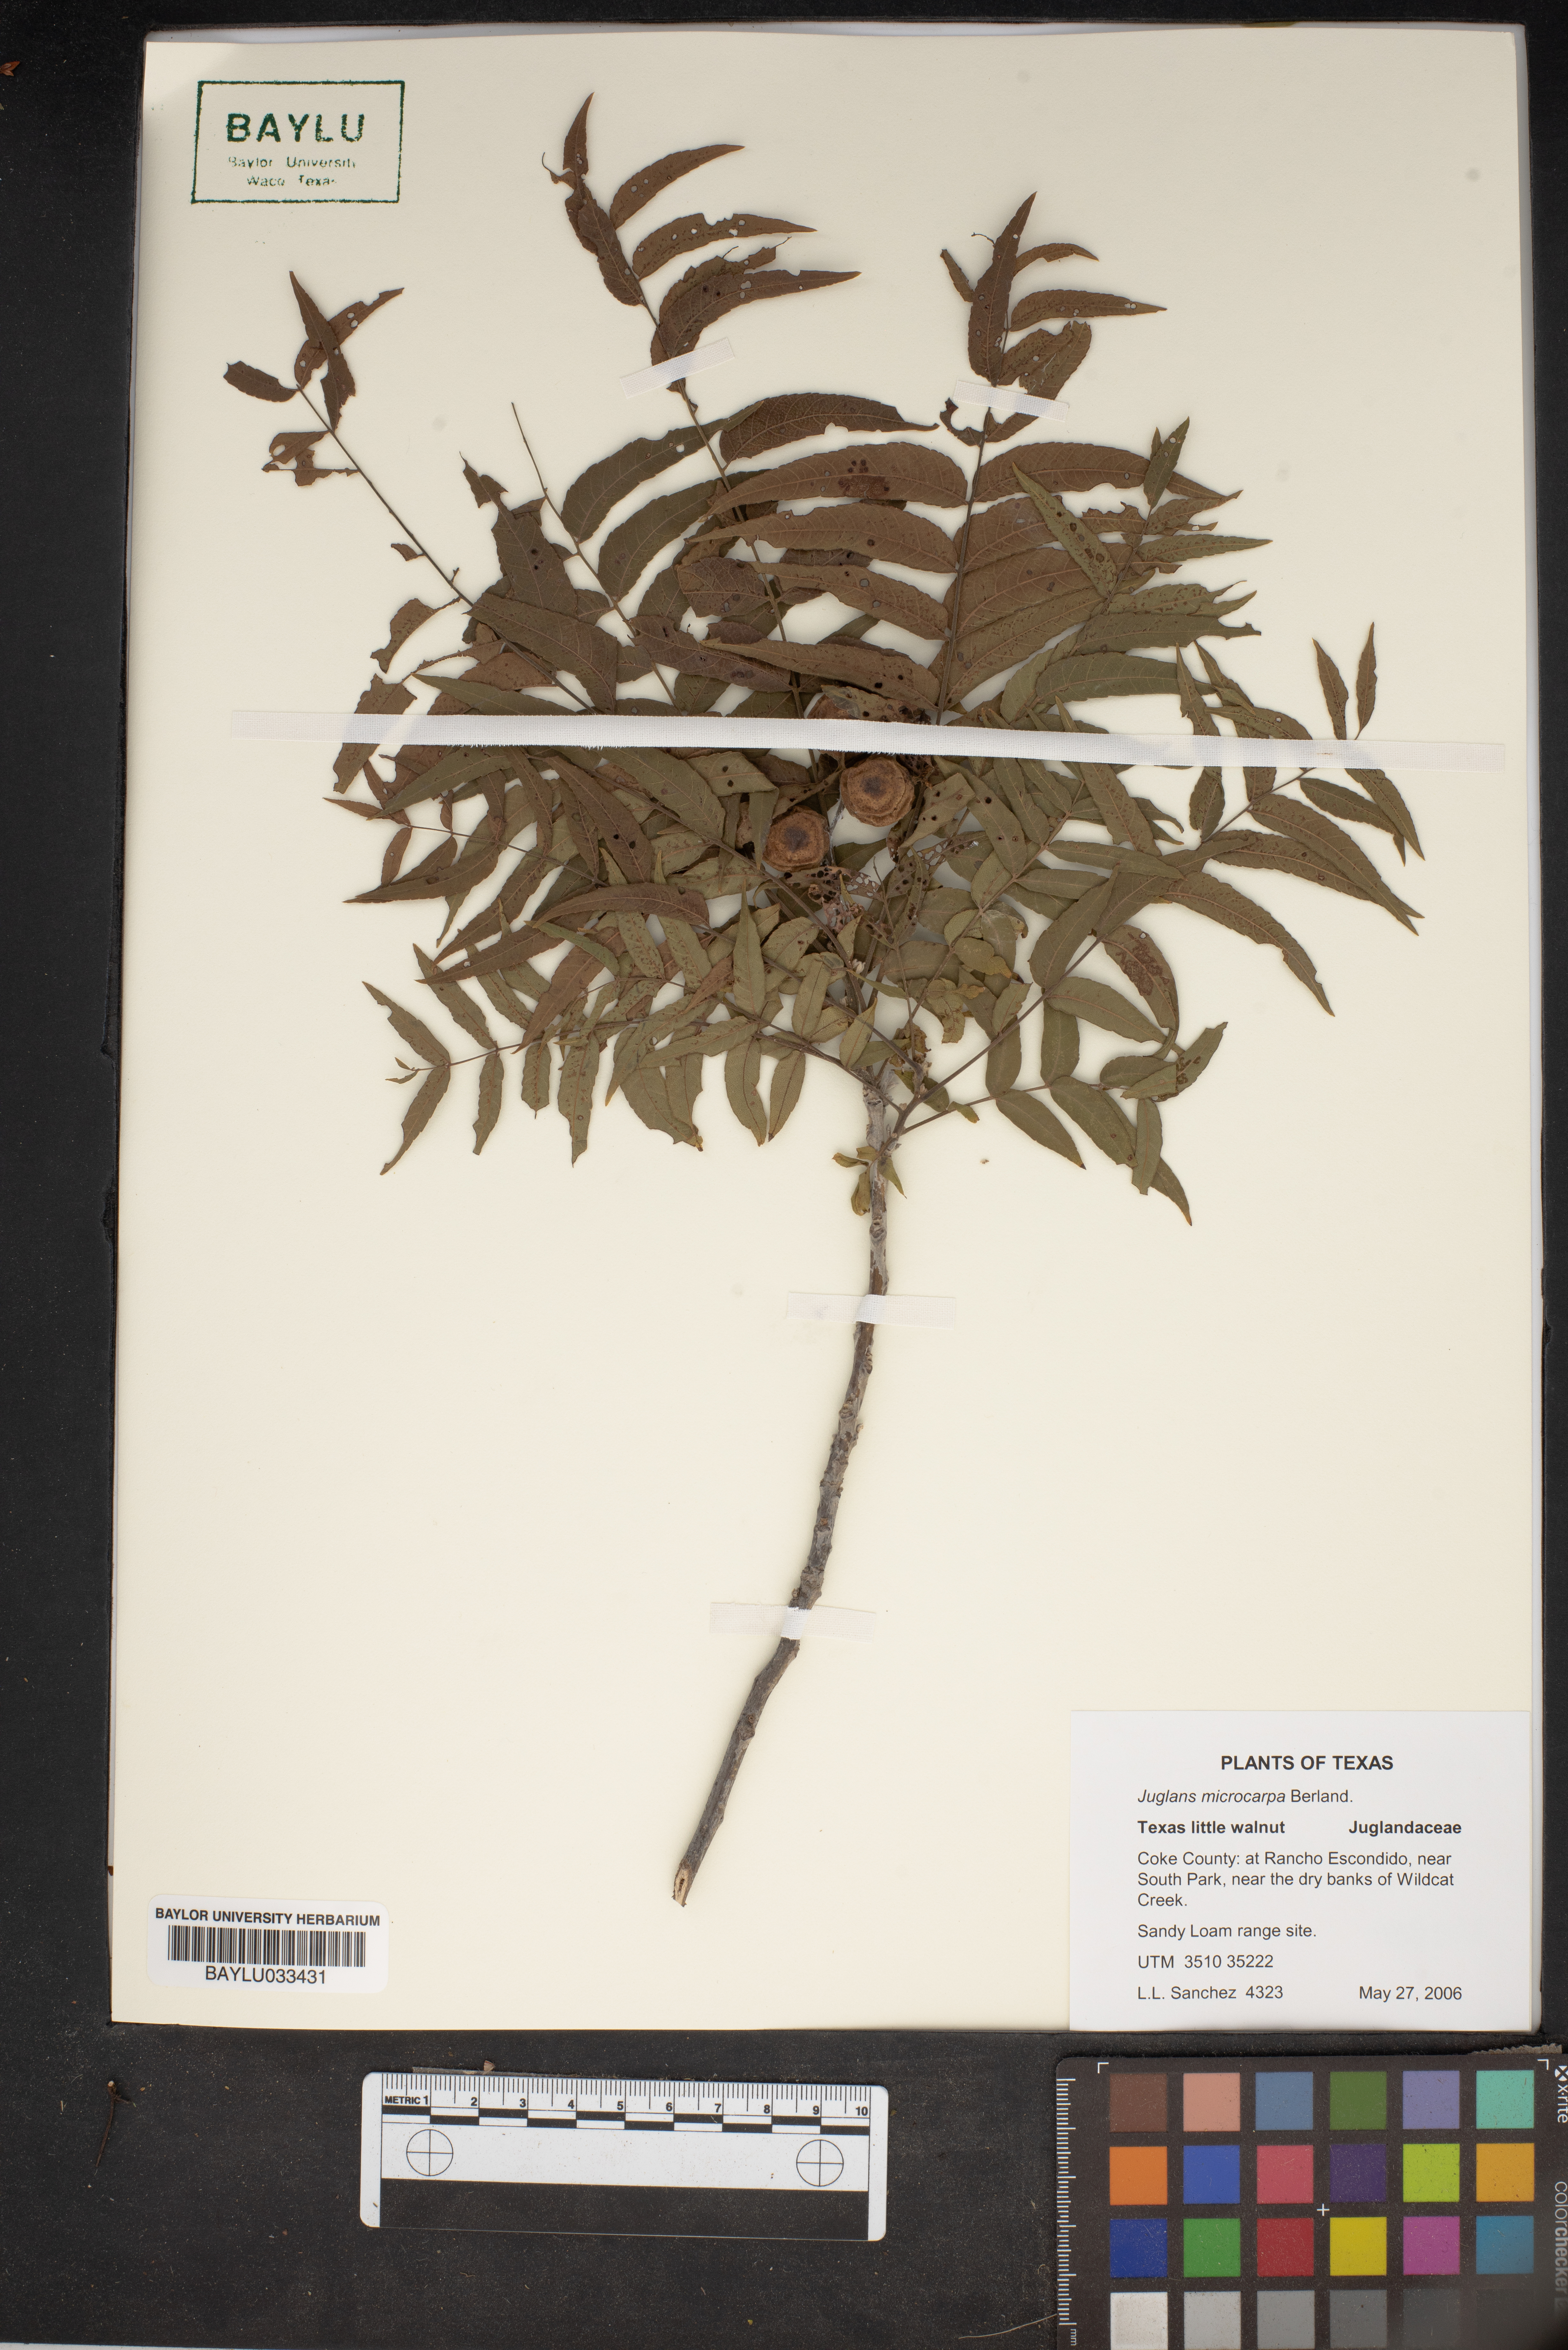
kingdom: Plantae
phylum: Tracheophyta
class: Magnoliopsida
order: Fagales
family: Juglandaceae
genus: Juglans
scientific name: Juglans microcarpa
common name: Texas walnut
